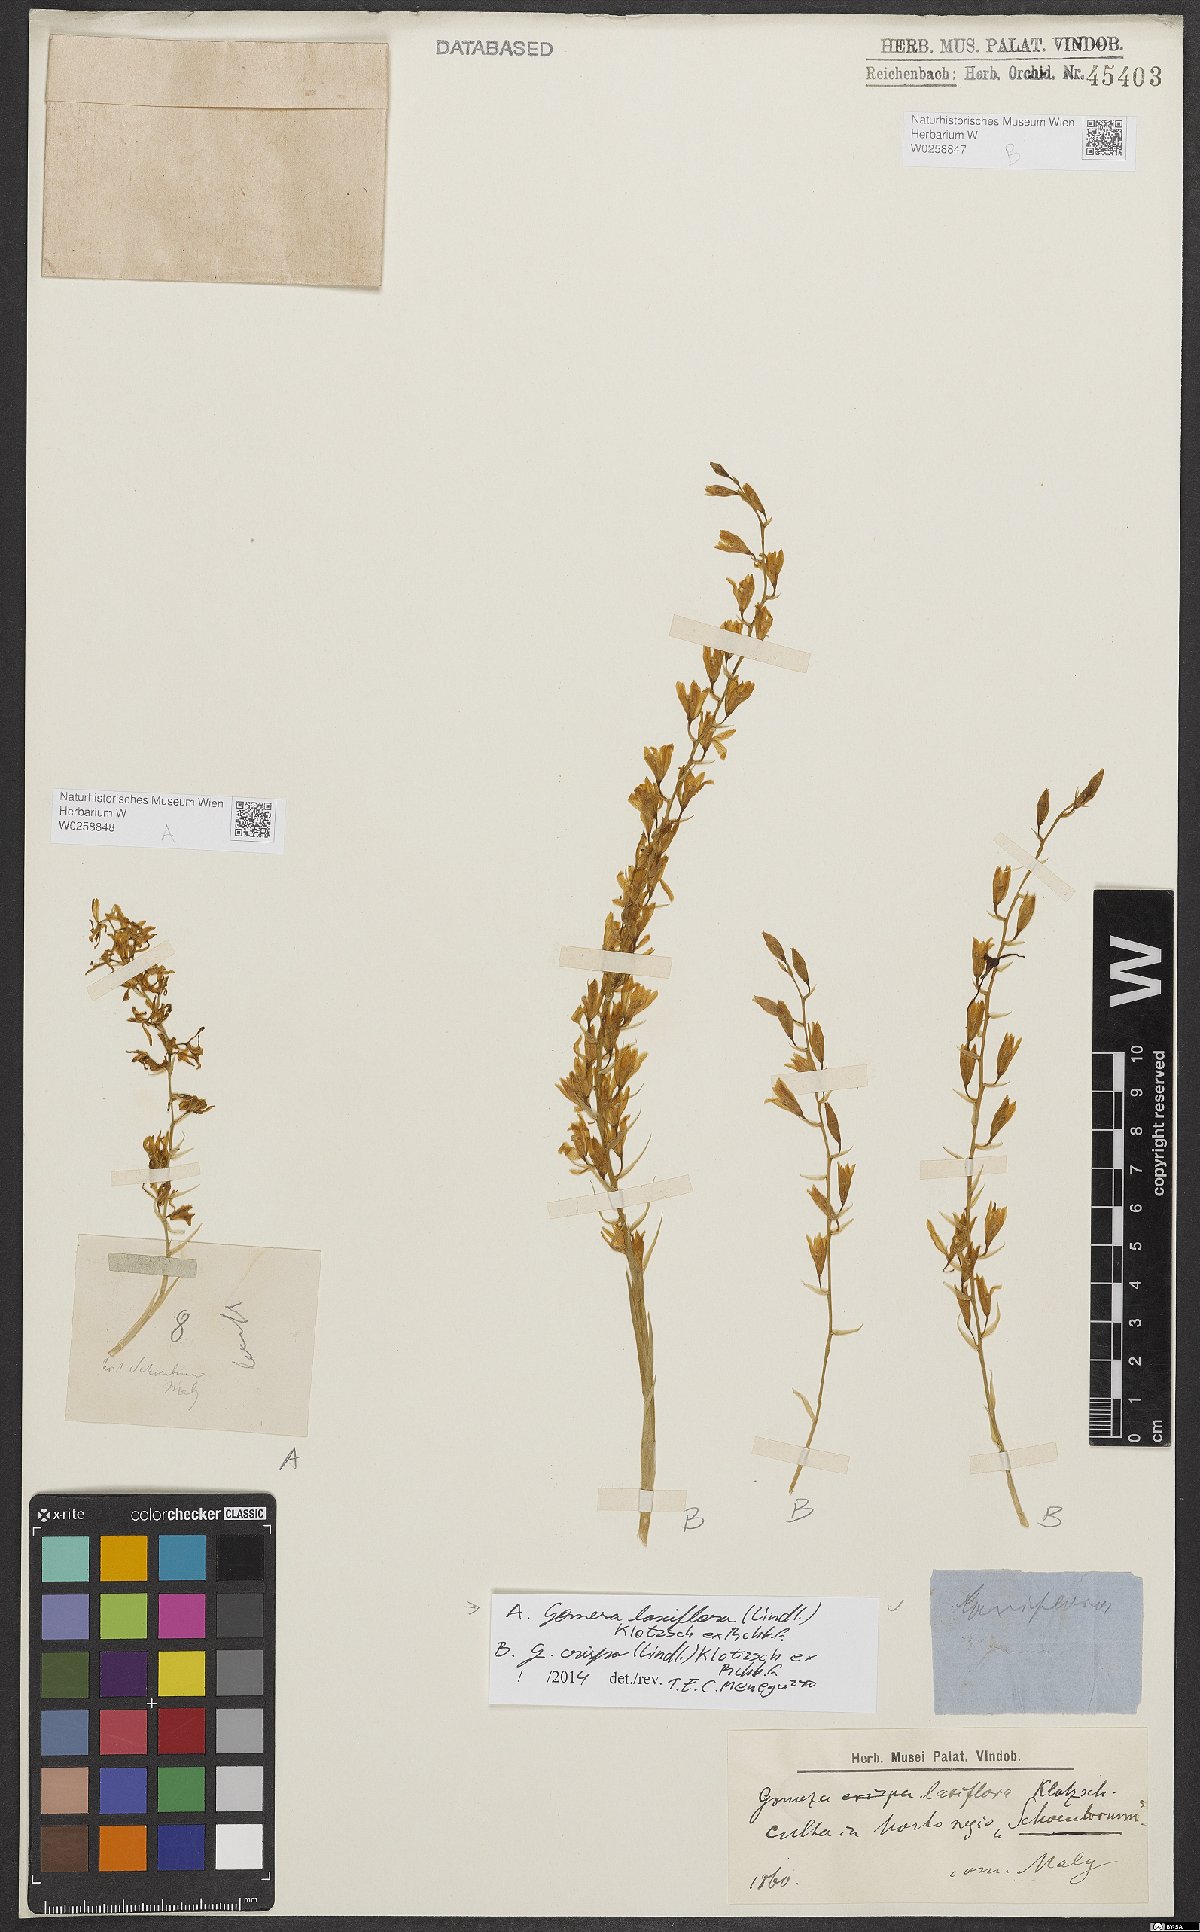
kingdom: Plantae
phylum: Tracheophyta
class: Liliopsida
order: Asparagales
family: Orchidaceae
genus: Gomesa
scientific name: Gomesa laxiflora
